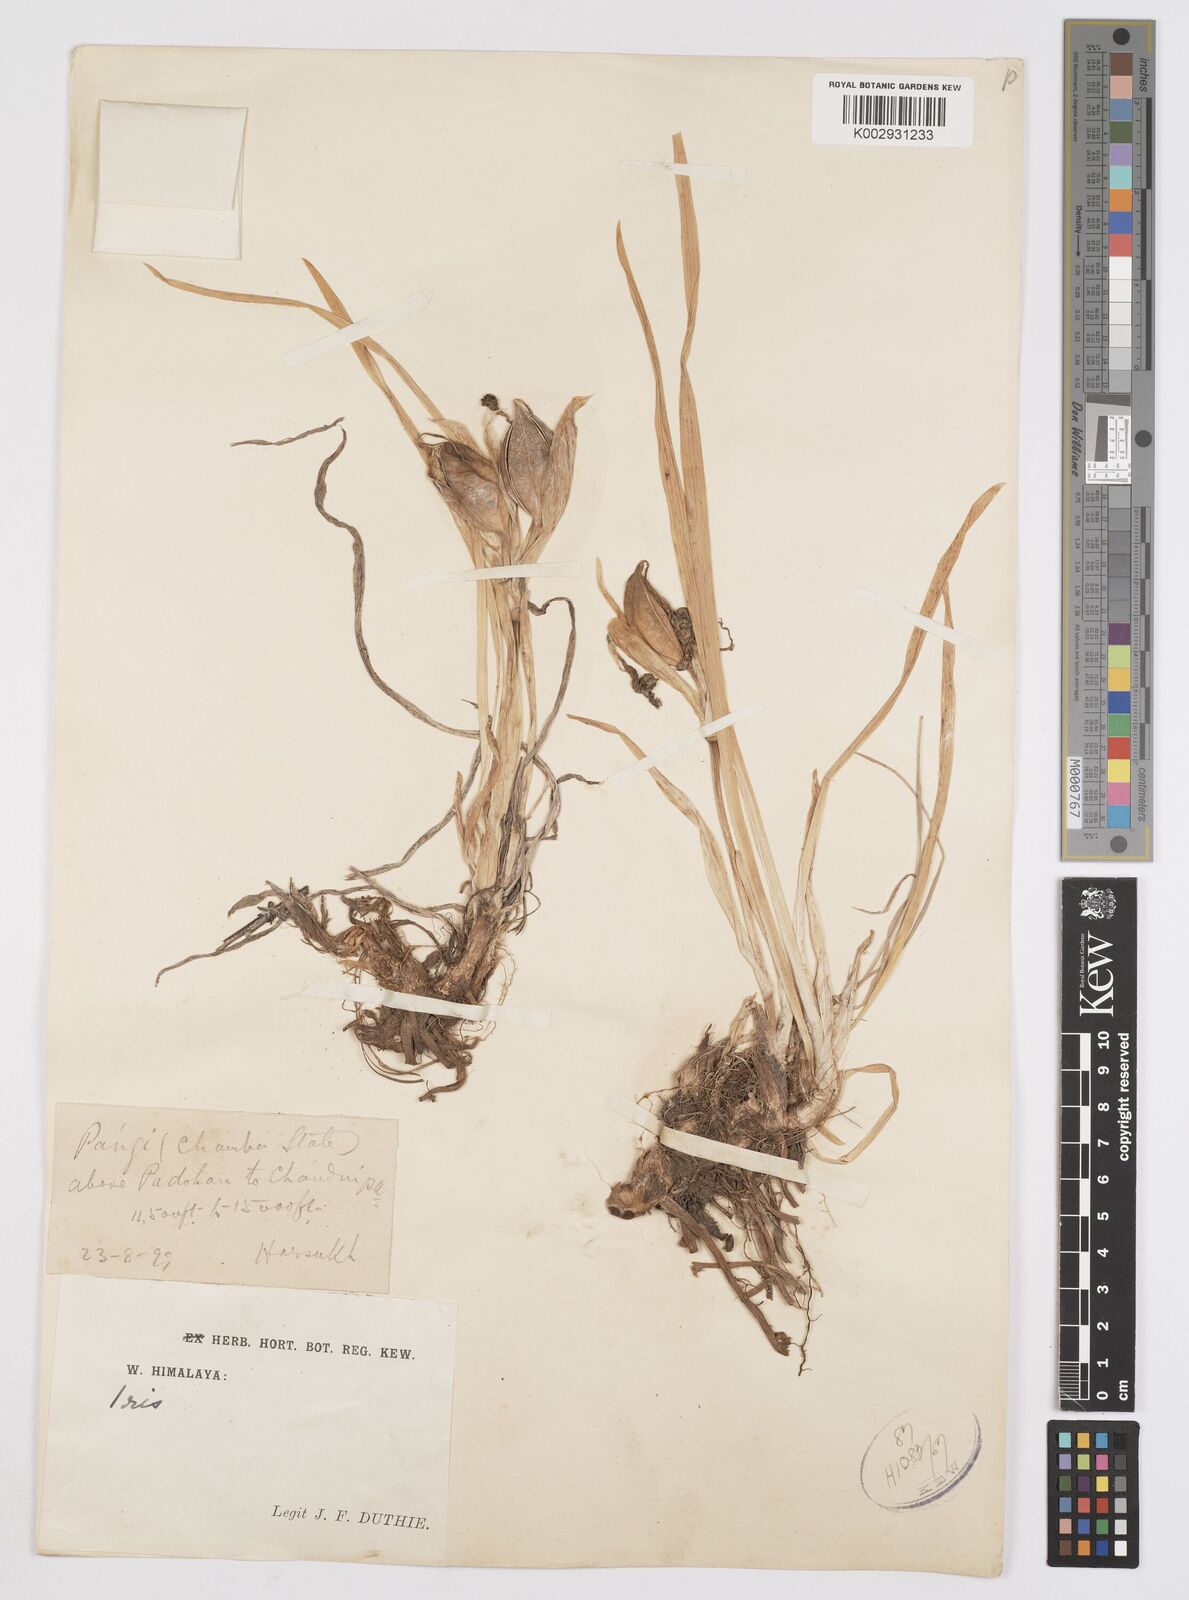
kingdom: Plantae
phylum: Tracheophyta
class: Liliopsida
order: Asparagales
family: Iridaceae
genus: Iris
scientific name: Iris hookeriana
